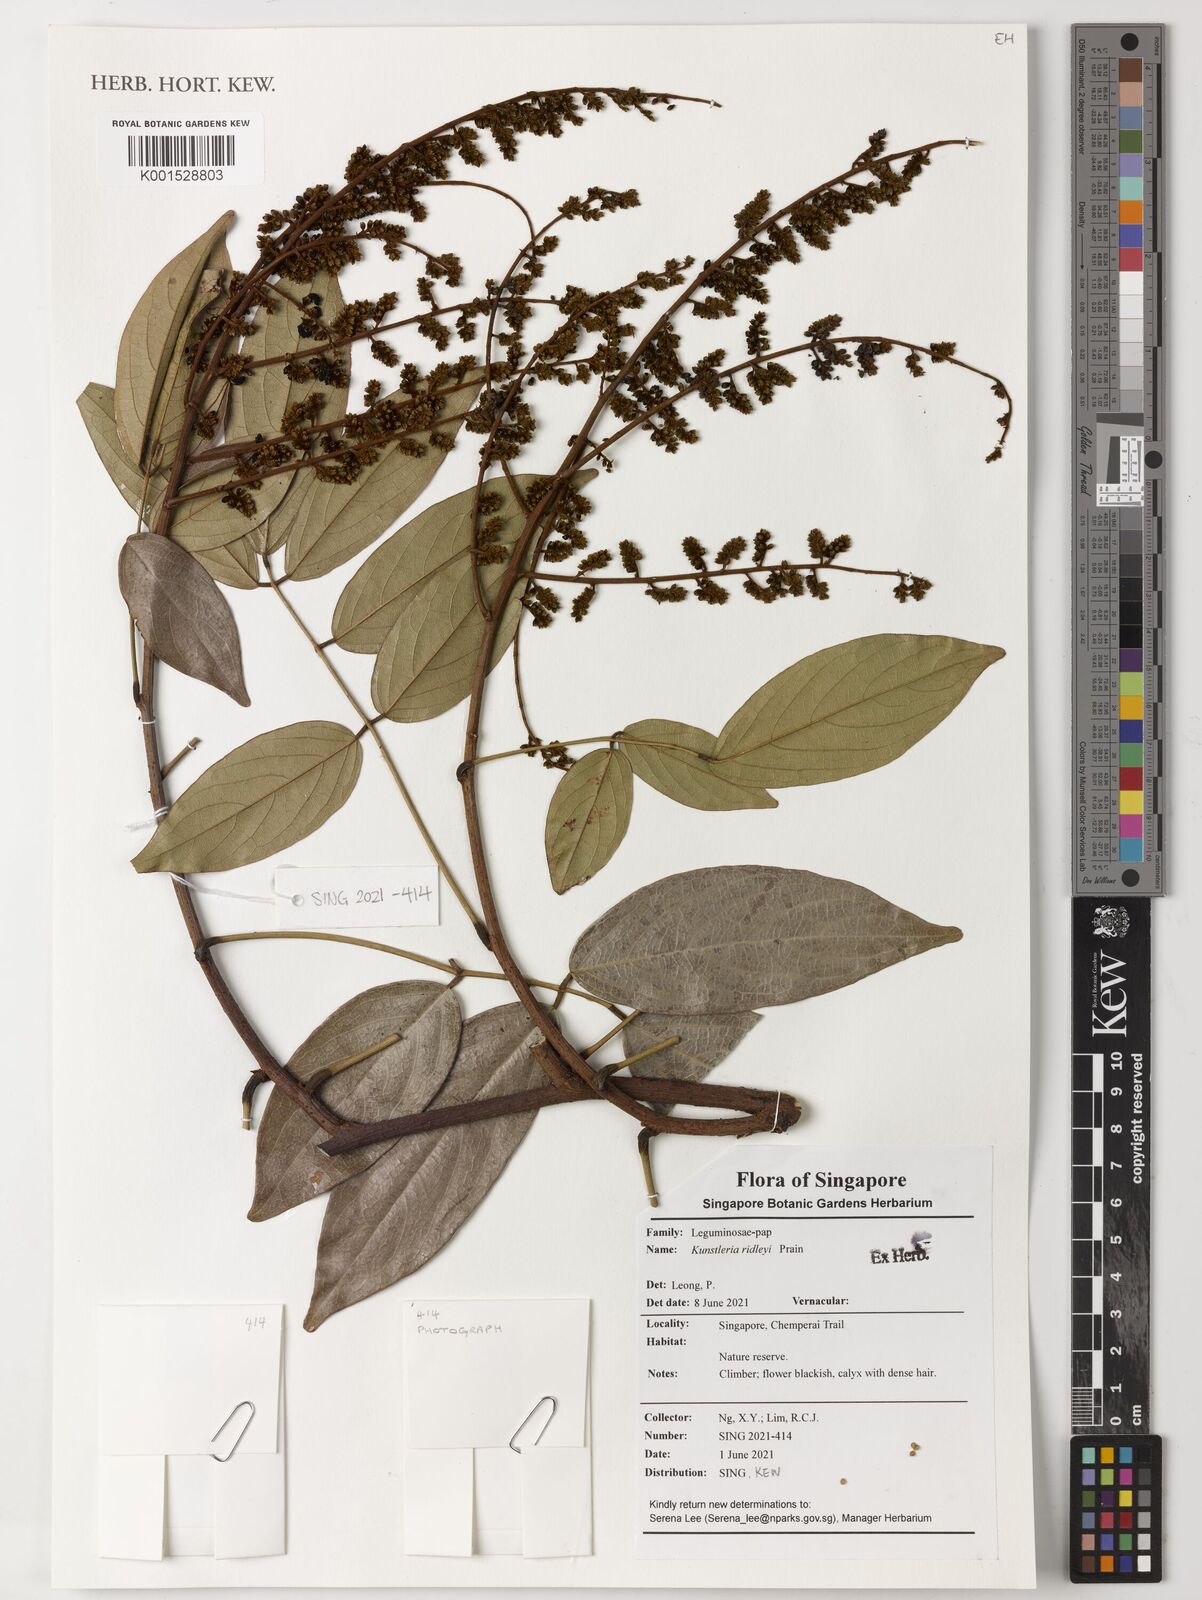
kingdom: Plantae
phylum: Tracheophyta
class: Magnoliopsida
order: Fabales
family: Fabaceae
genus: Kunstleria
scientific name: Kunstleria ridleyi
